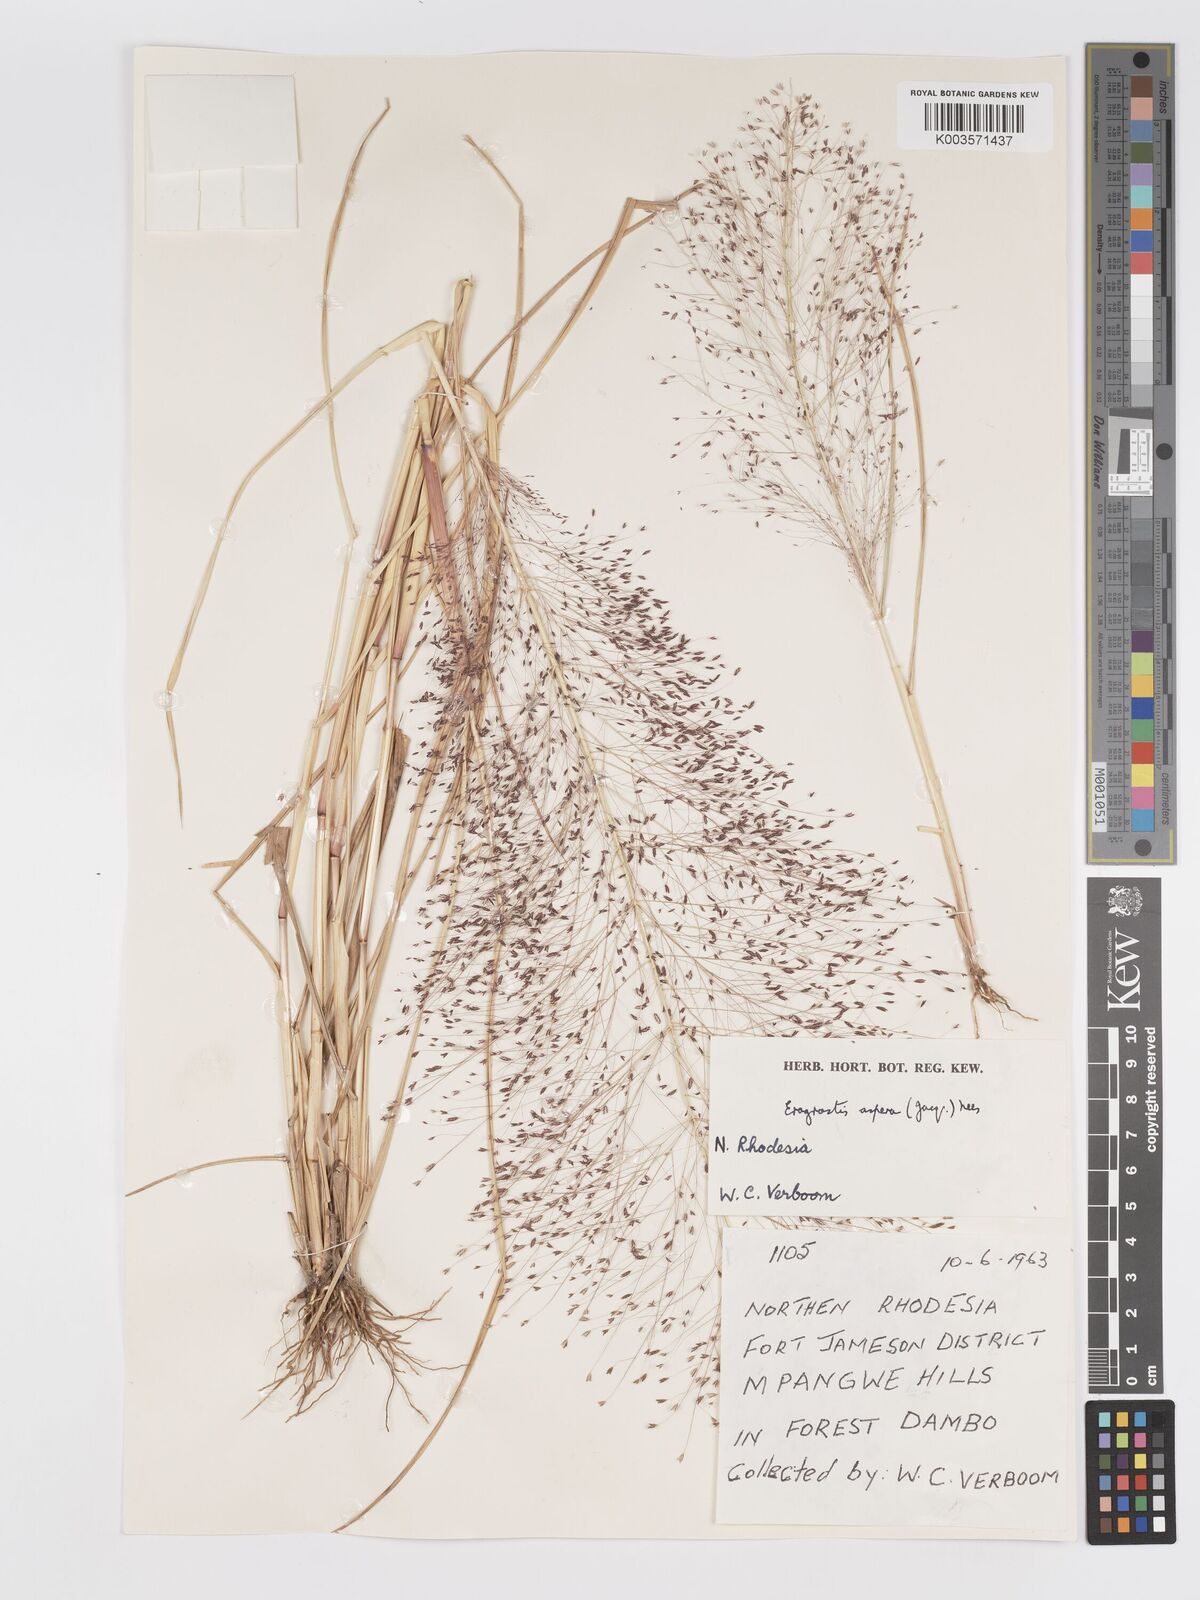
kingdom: Plantae
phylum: Tracheophyta
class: Liliopsida
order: Poales
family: Poaceae
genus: Eragrostis
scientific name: Eragrostis aspera
